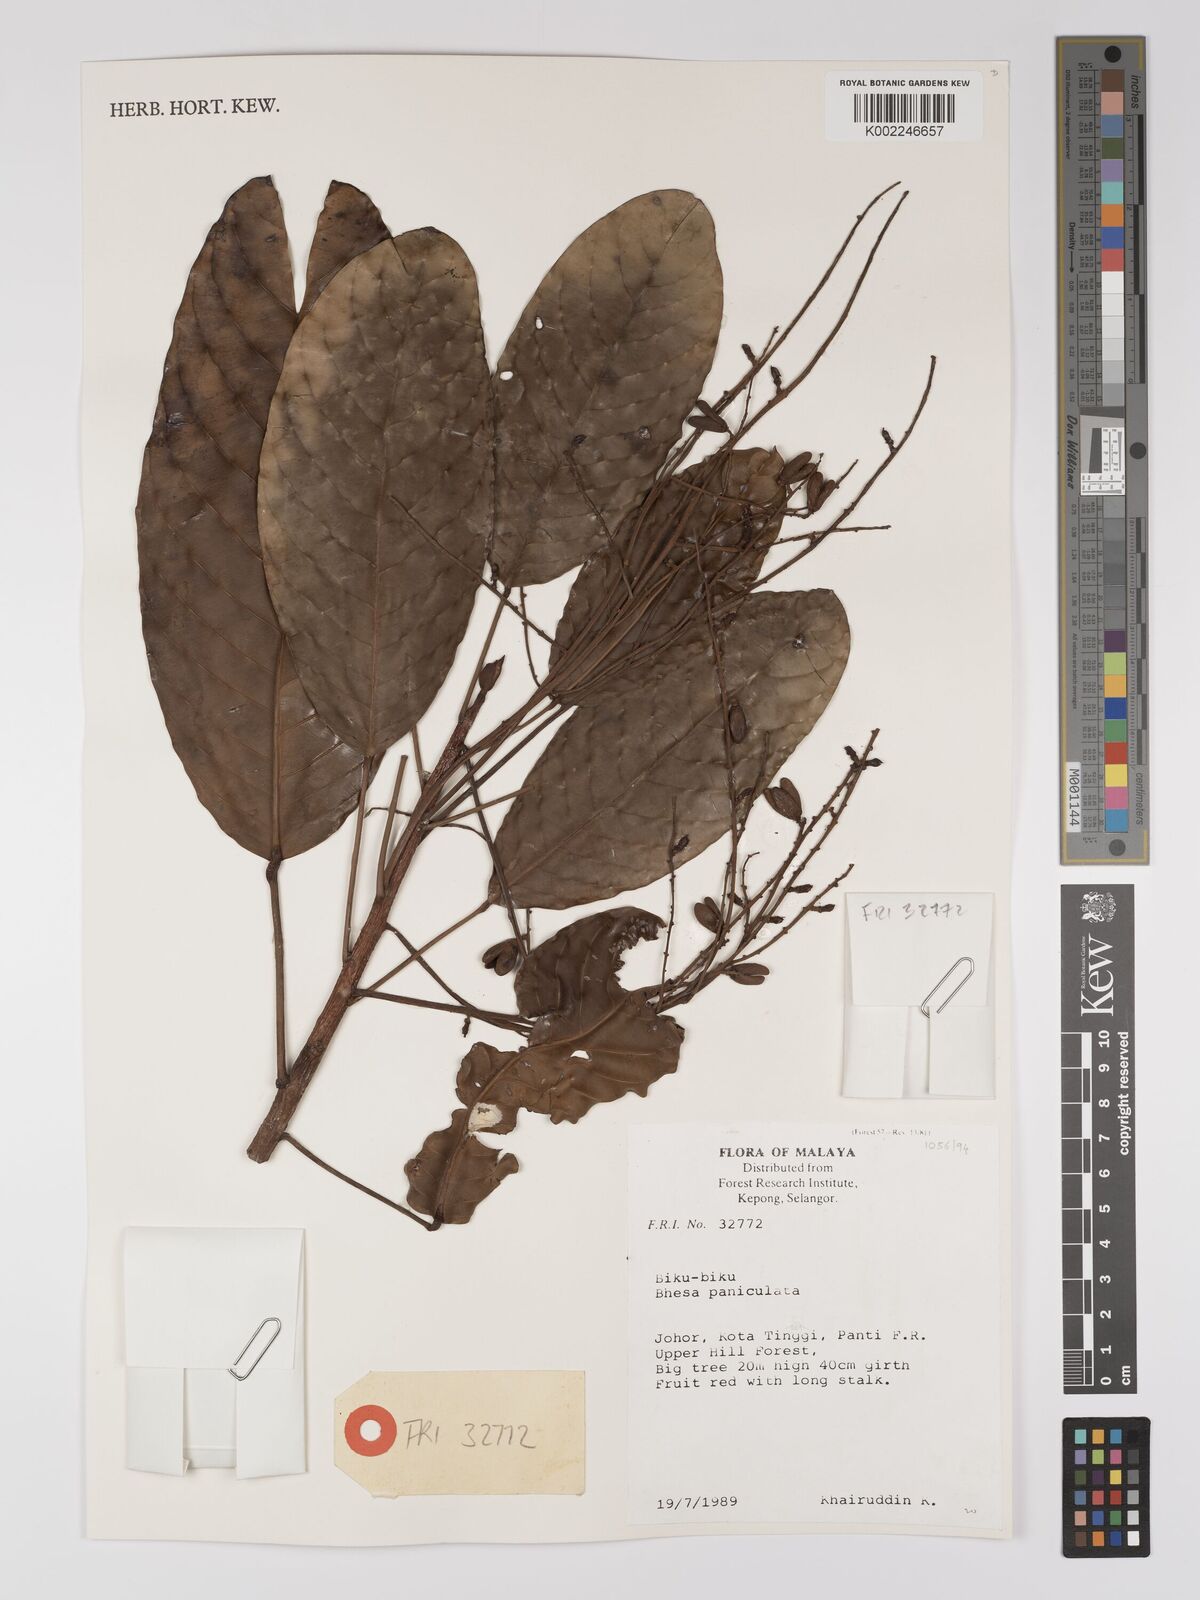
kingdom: Plantae
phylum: Tracheophyta
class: Magnoliopsida
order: Malpighiales
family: Centroplacaceae
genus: Bhesa
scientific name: Bhesa paniculata
